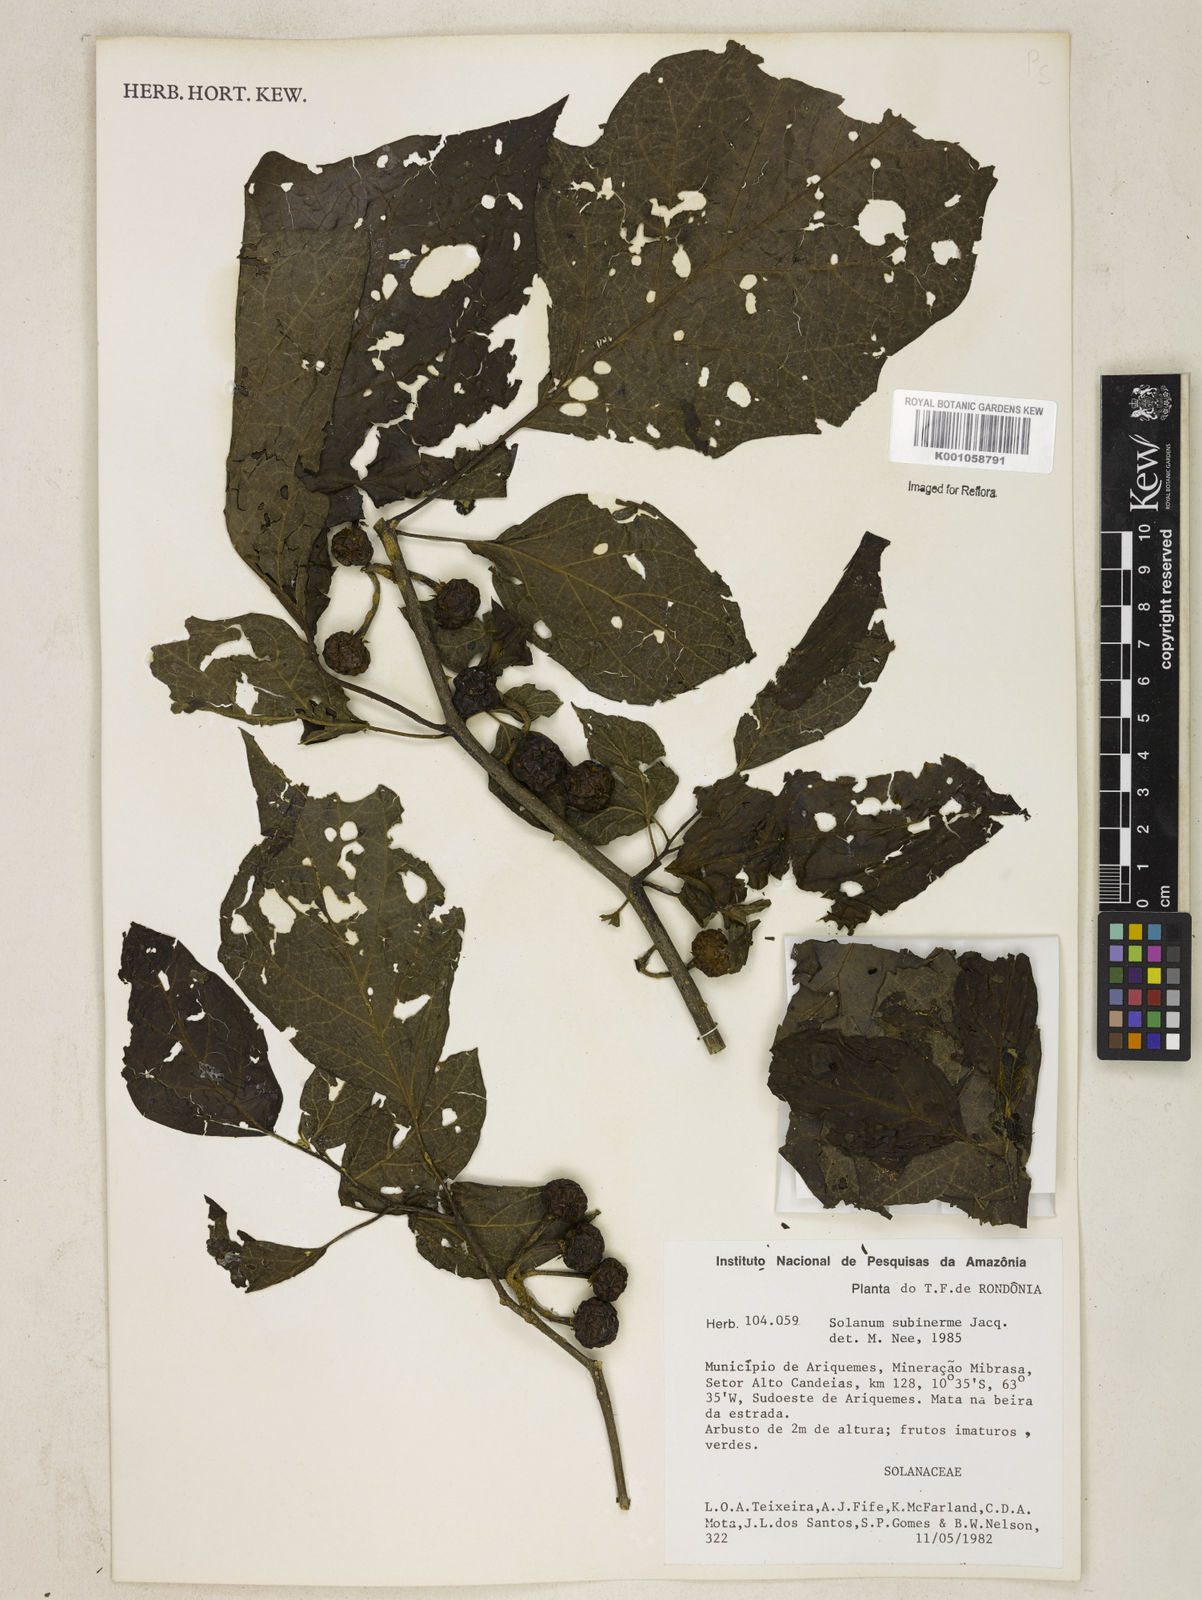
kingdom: Plantae
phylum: Tracheophyta
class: Magnoliopsida
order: Solanales
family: Solanaceae
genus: Solanum
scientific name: Solanum subinerme
